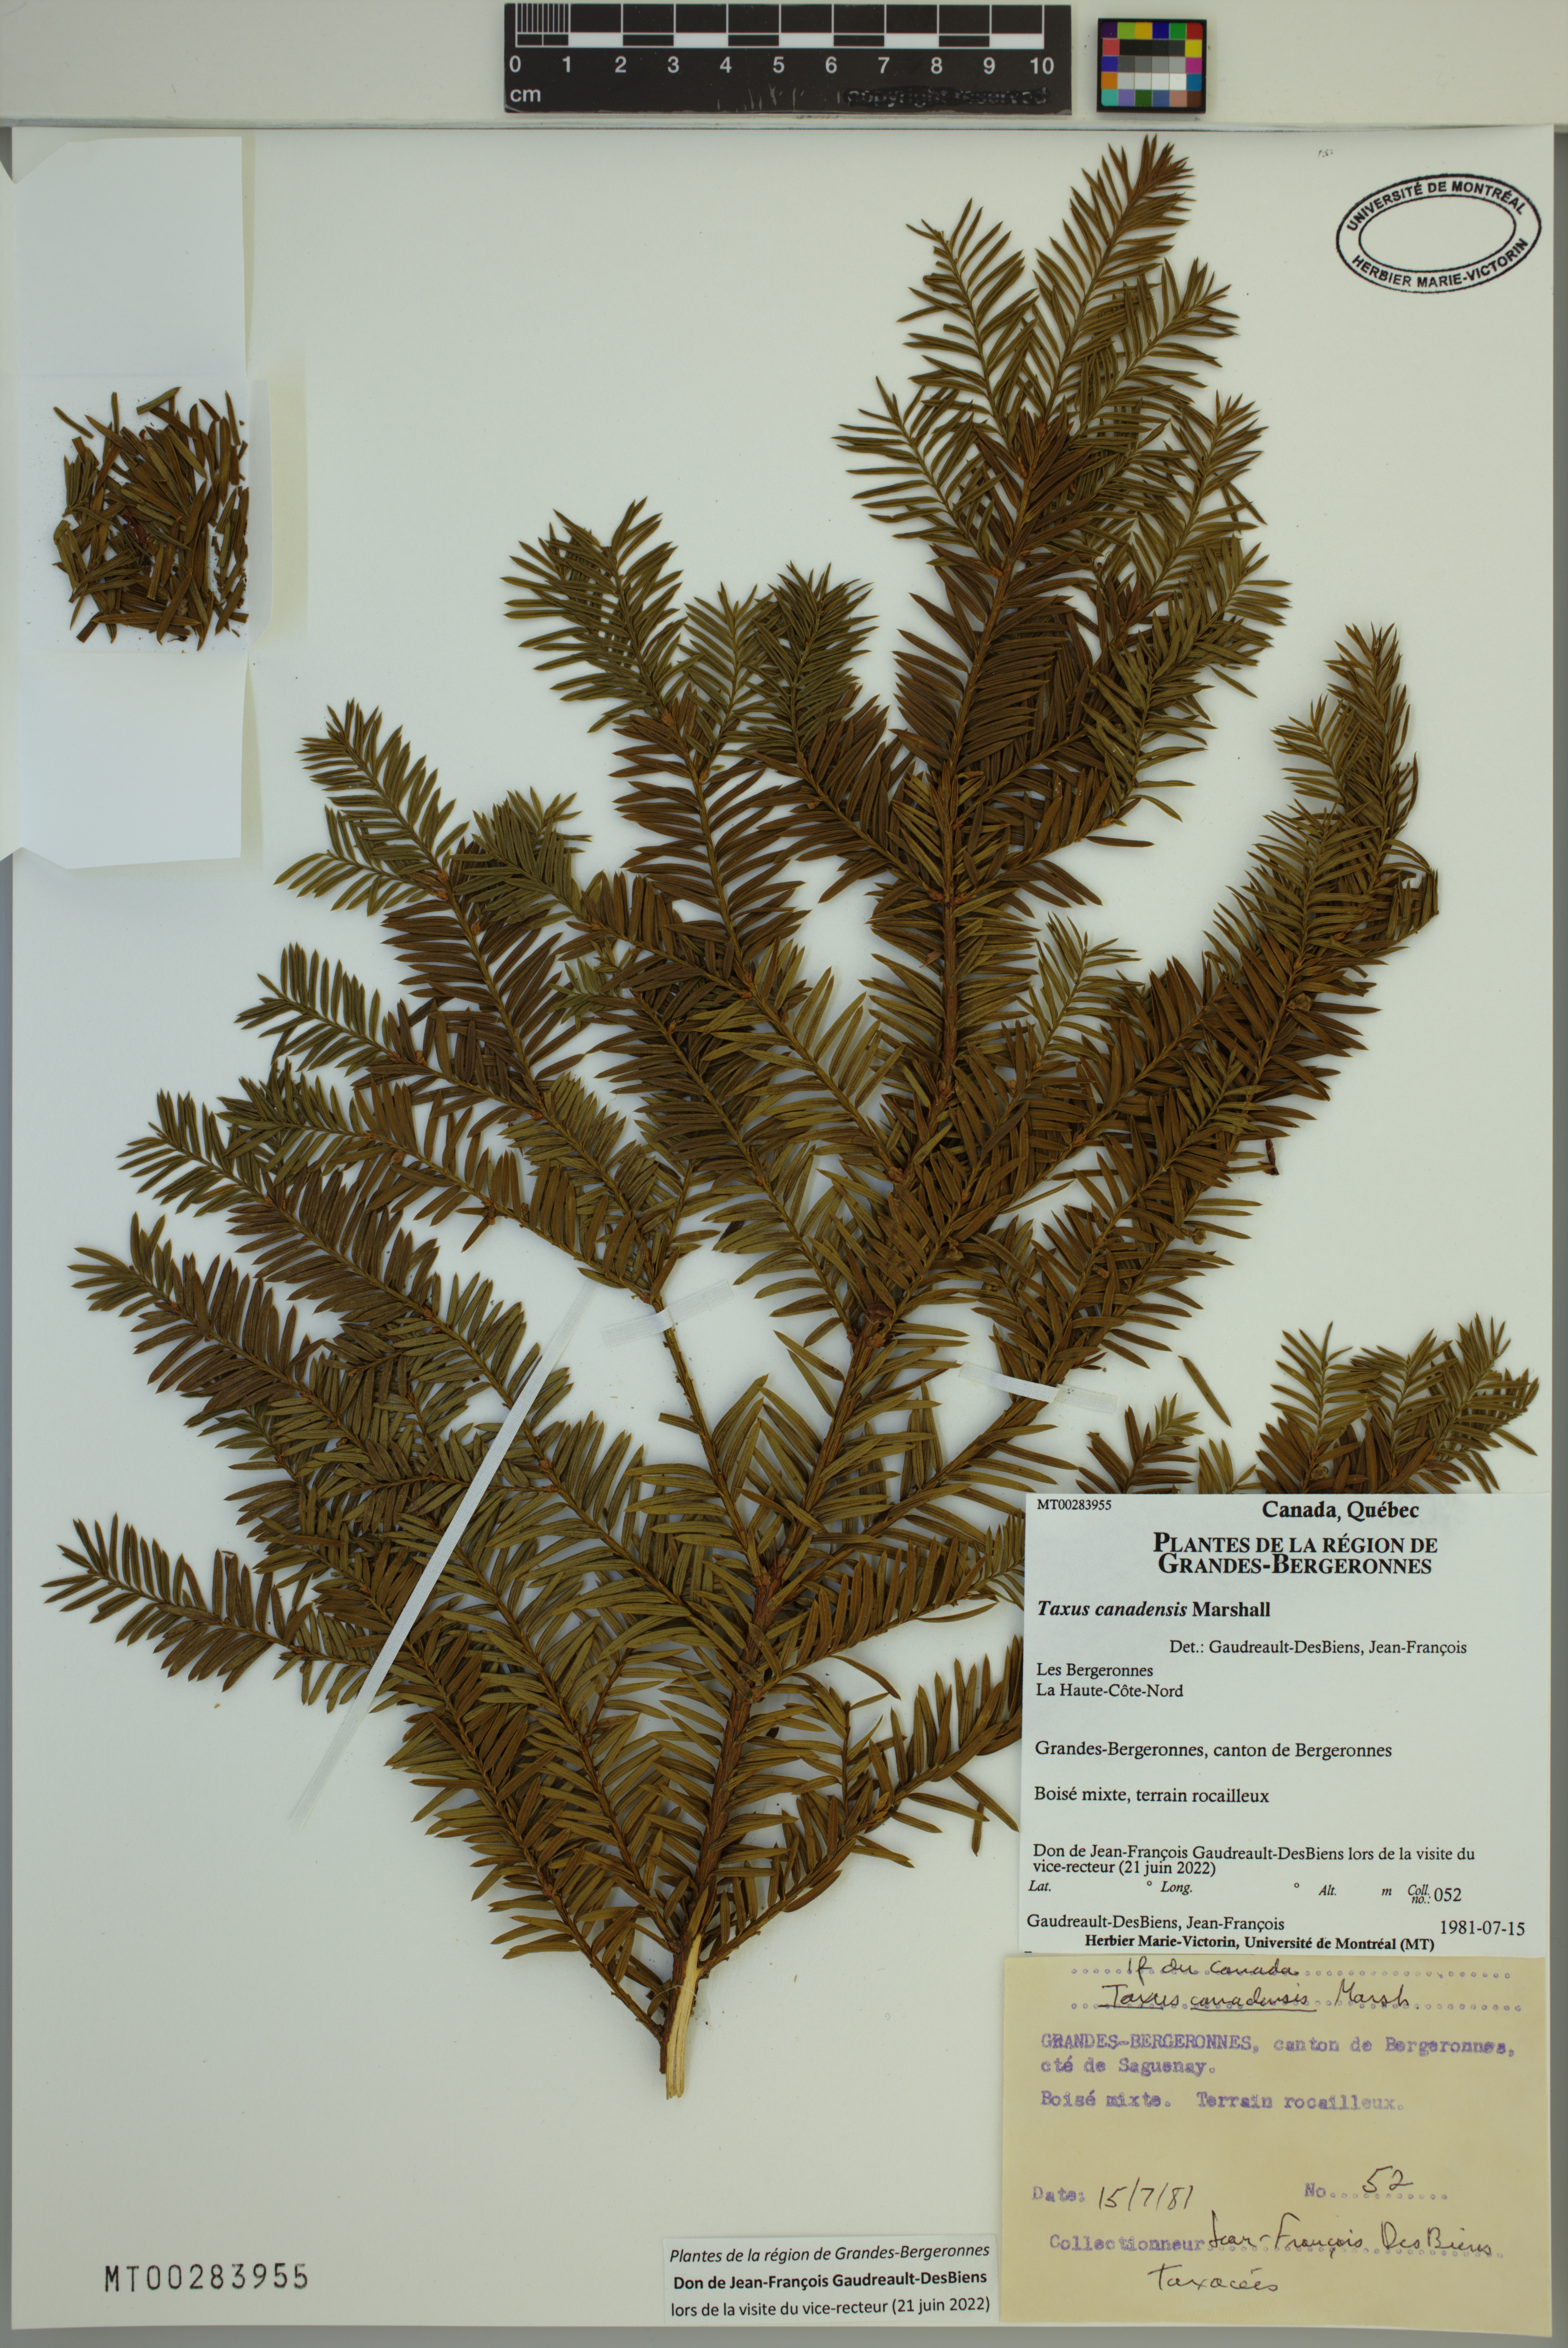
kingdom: Plantae
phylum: Tracheophyta
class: Pinopsida
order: Pinales
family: Taxaceae
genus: Taxus
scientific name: Taxus canadensis
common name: American yew
